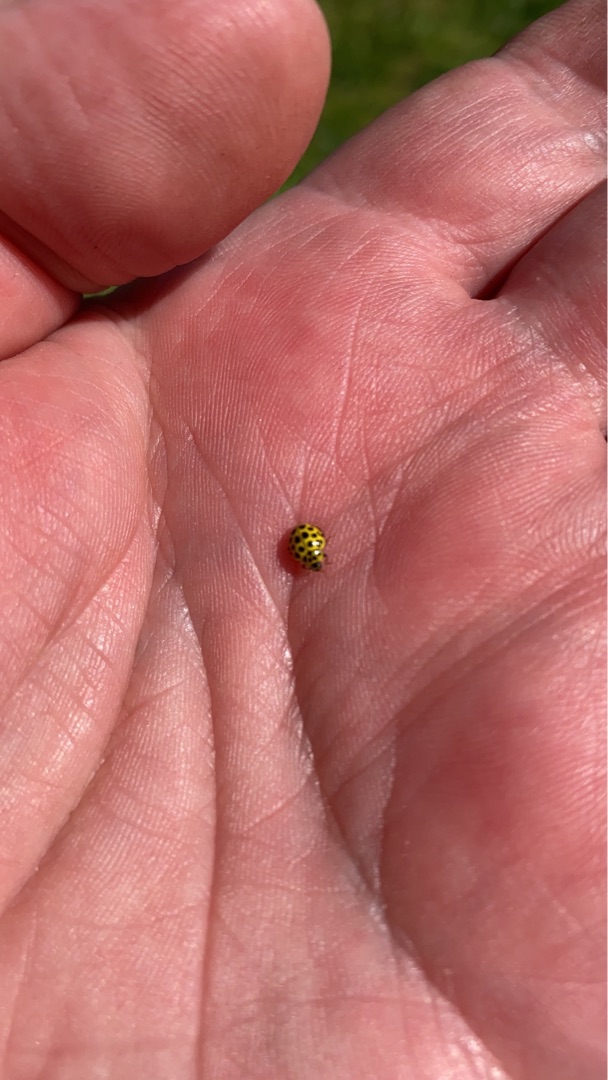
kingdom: Animalia
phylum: Arthropoda
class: Insecta
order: Coleoptera
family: Coccinellidae
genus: Psyllobora
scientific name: Psyllobora vigintiduopunctata
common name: Toogtyveplettet mariehøne
